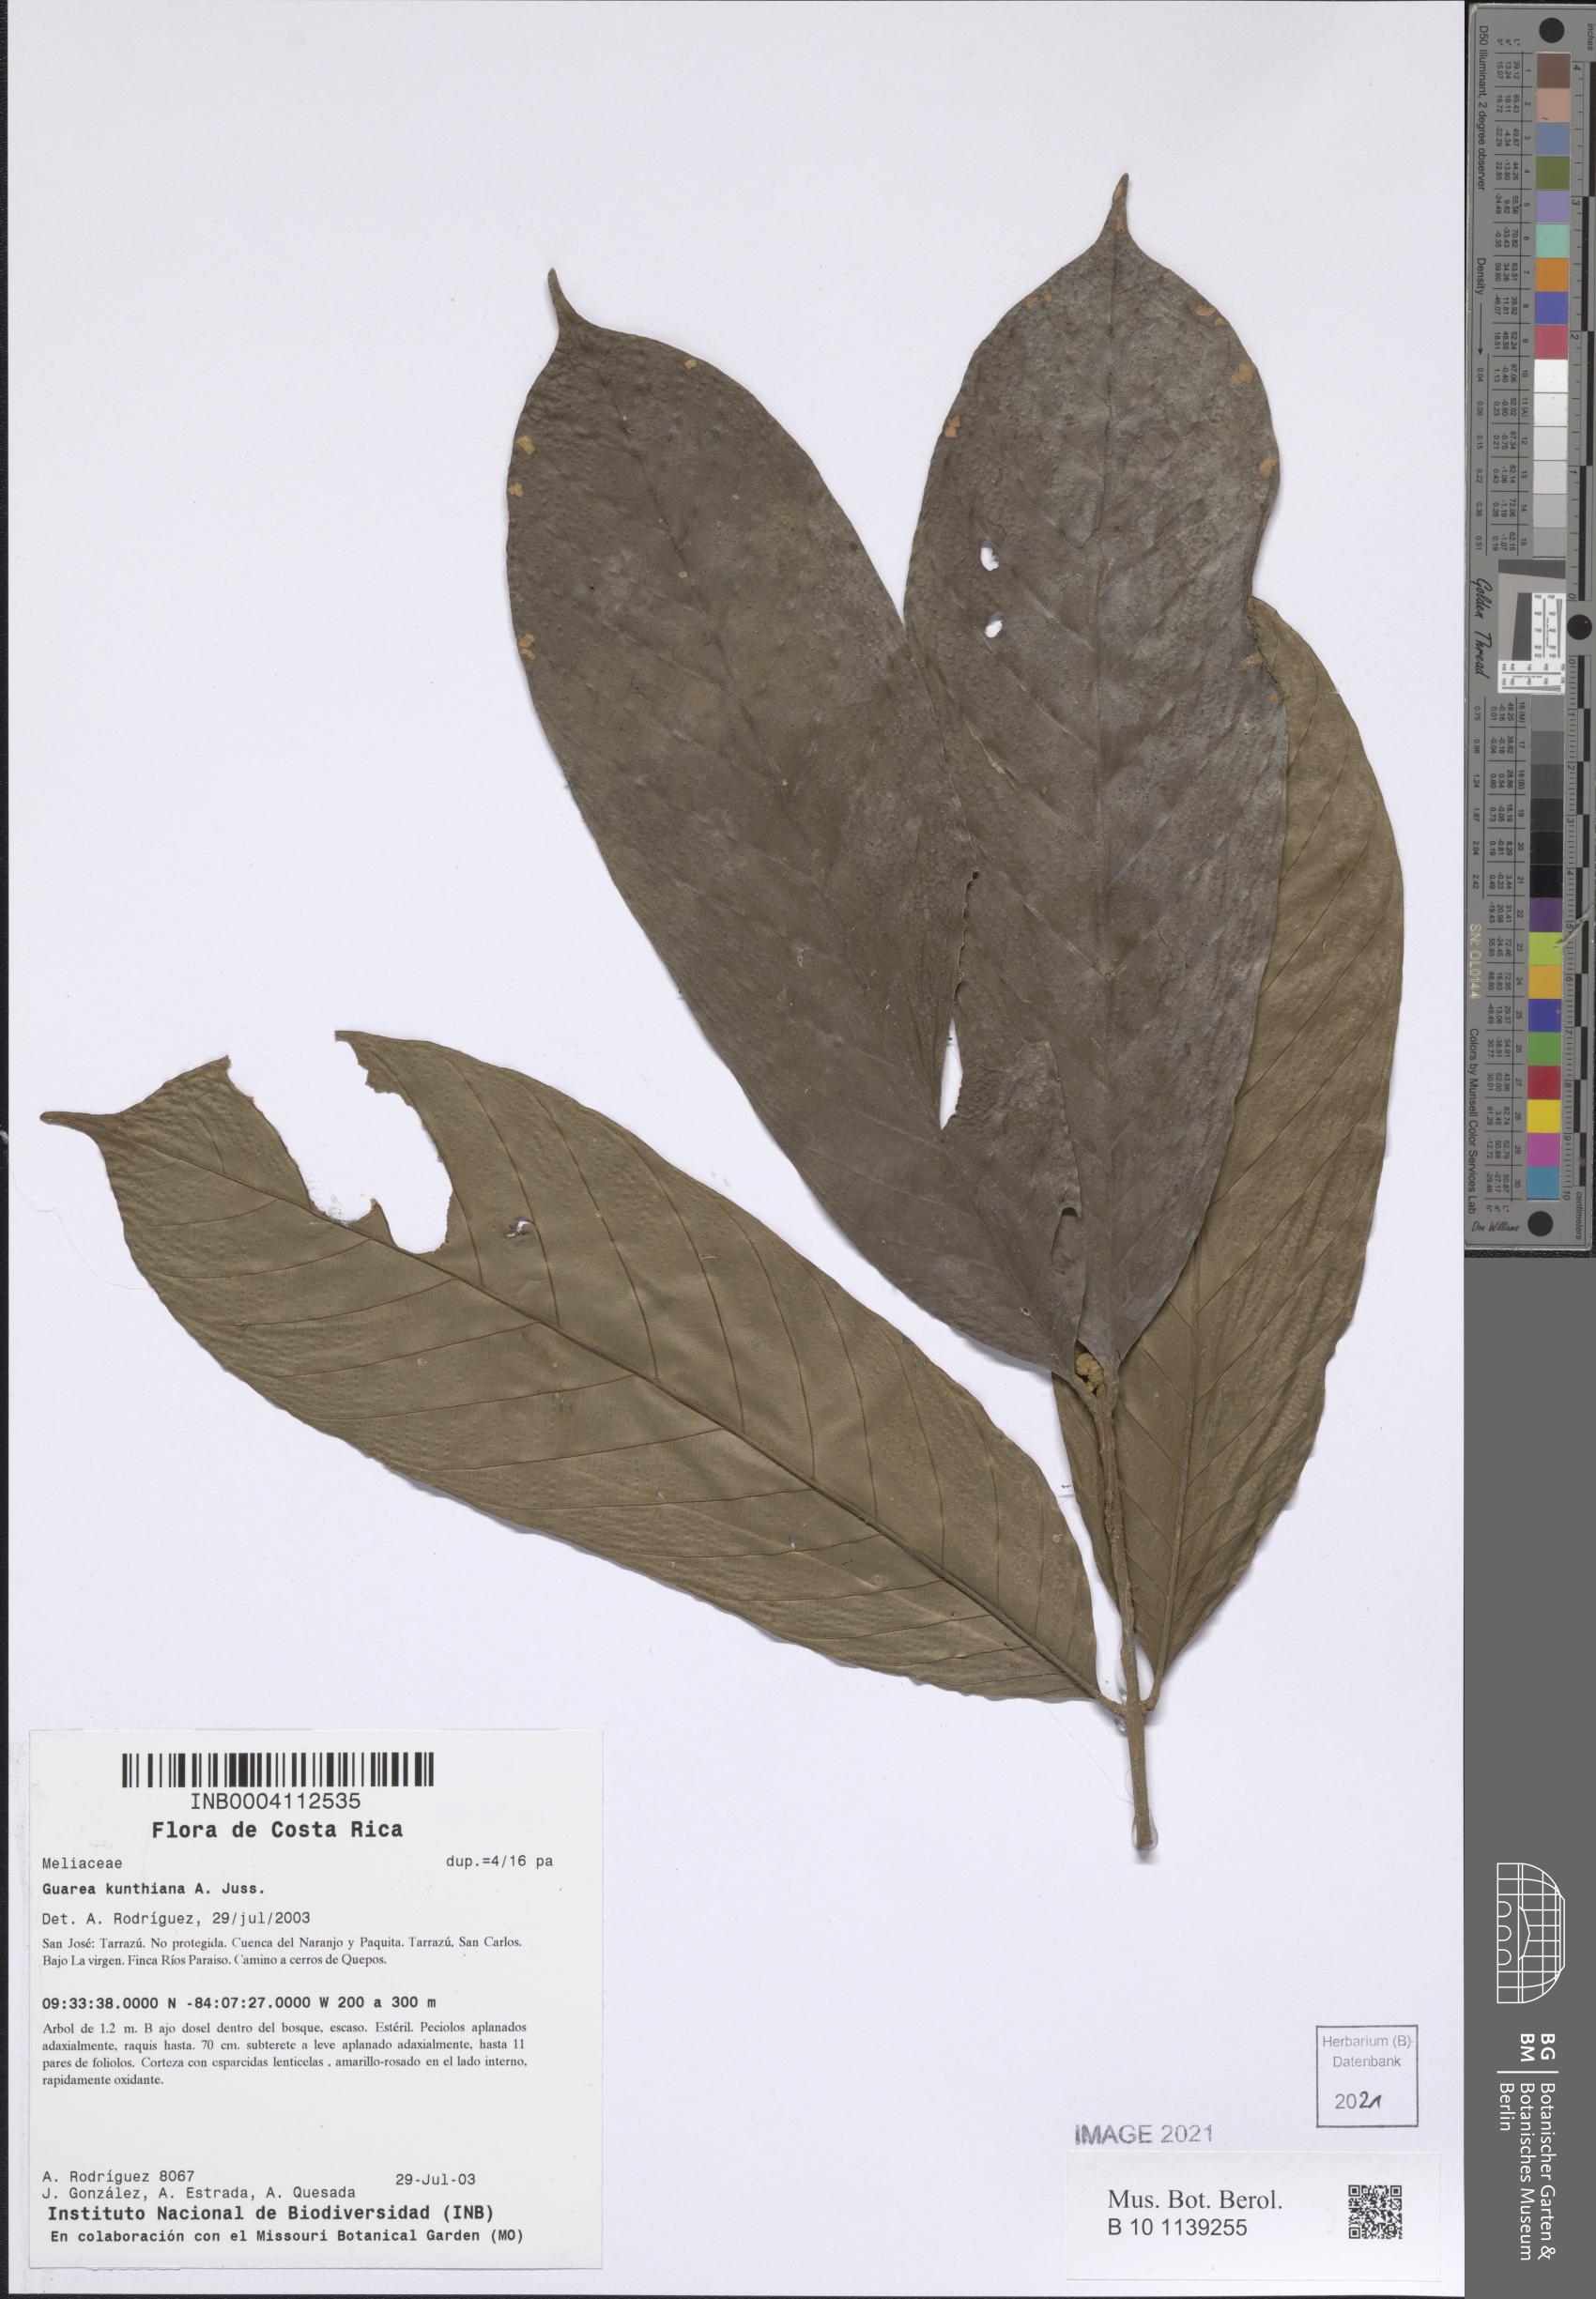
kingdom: Plantae
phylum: Tracheophyta
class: Magnoliopsida
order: Sapindales
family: Meliaceae
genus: Guarea
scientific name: Guarea kunthiana
